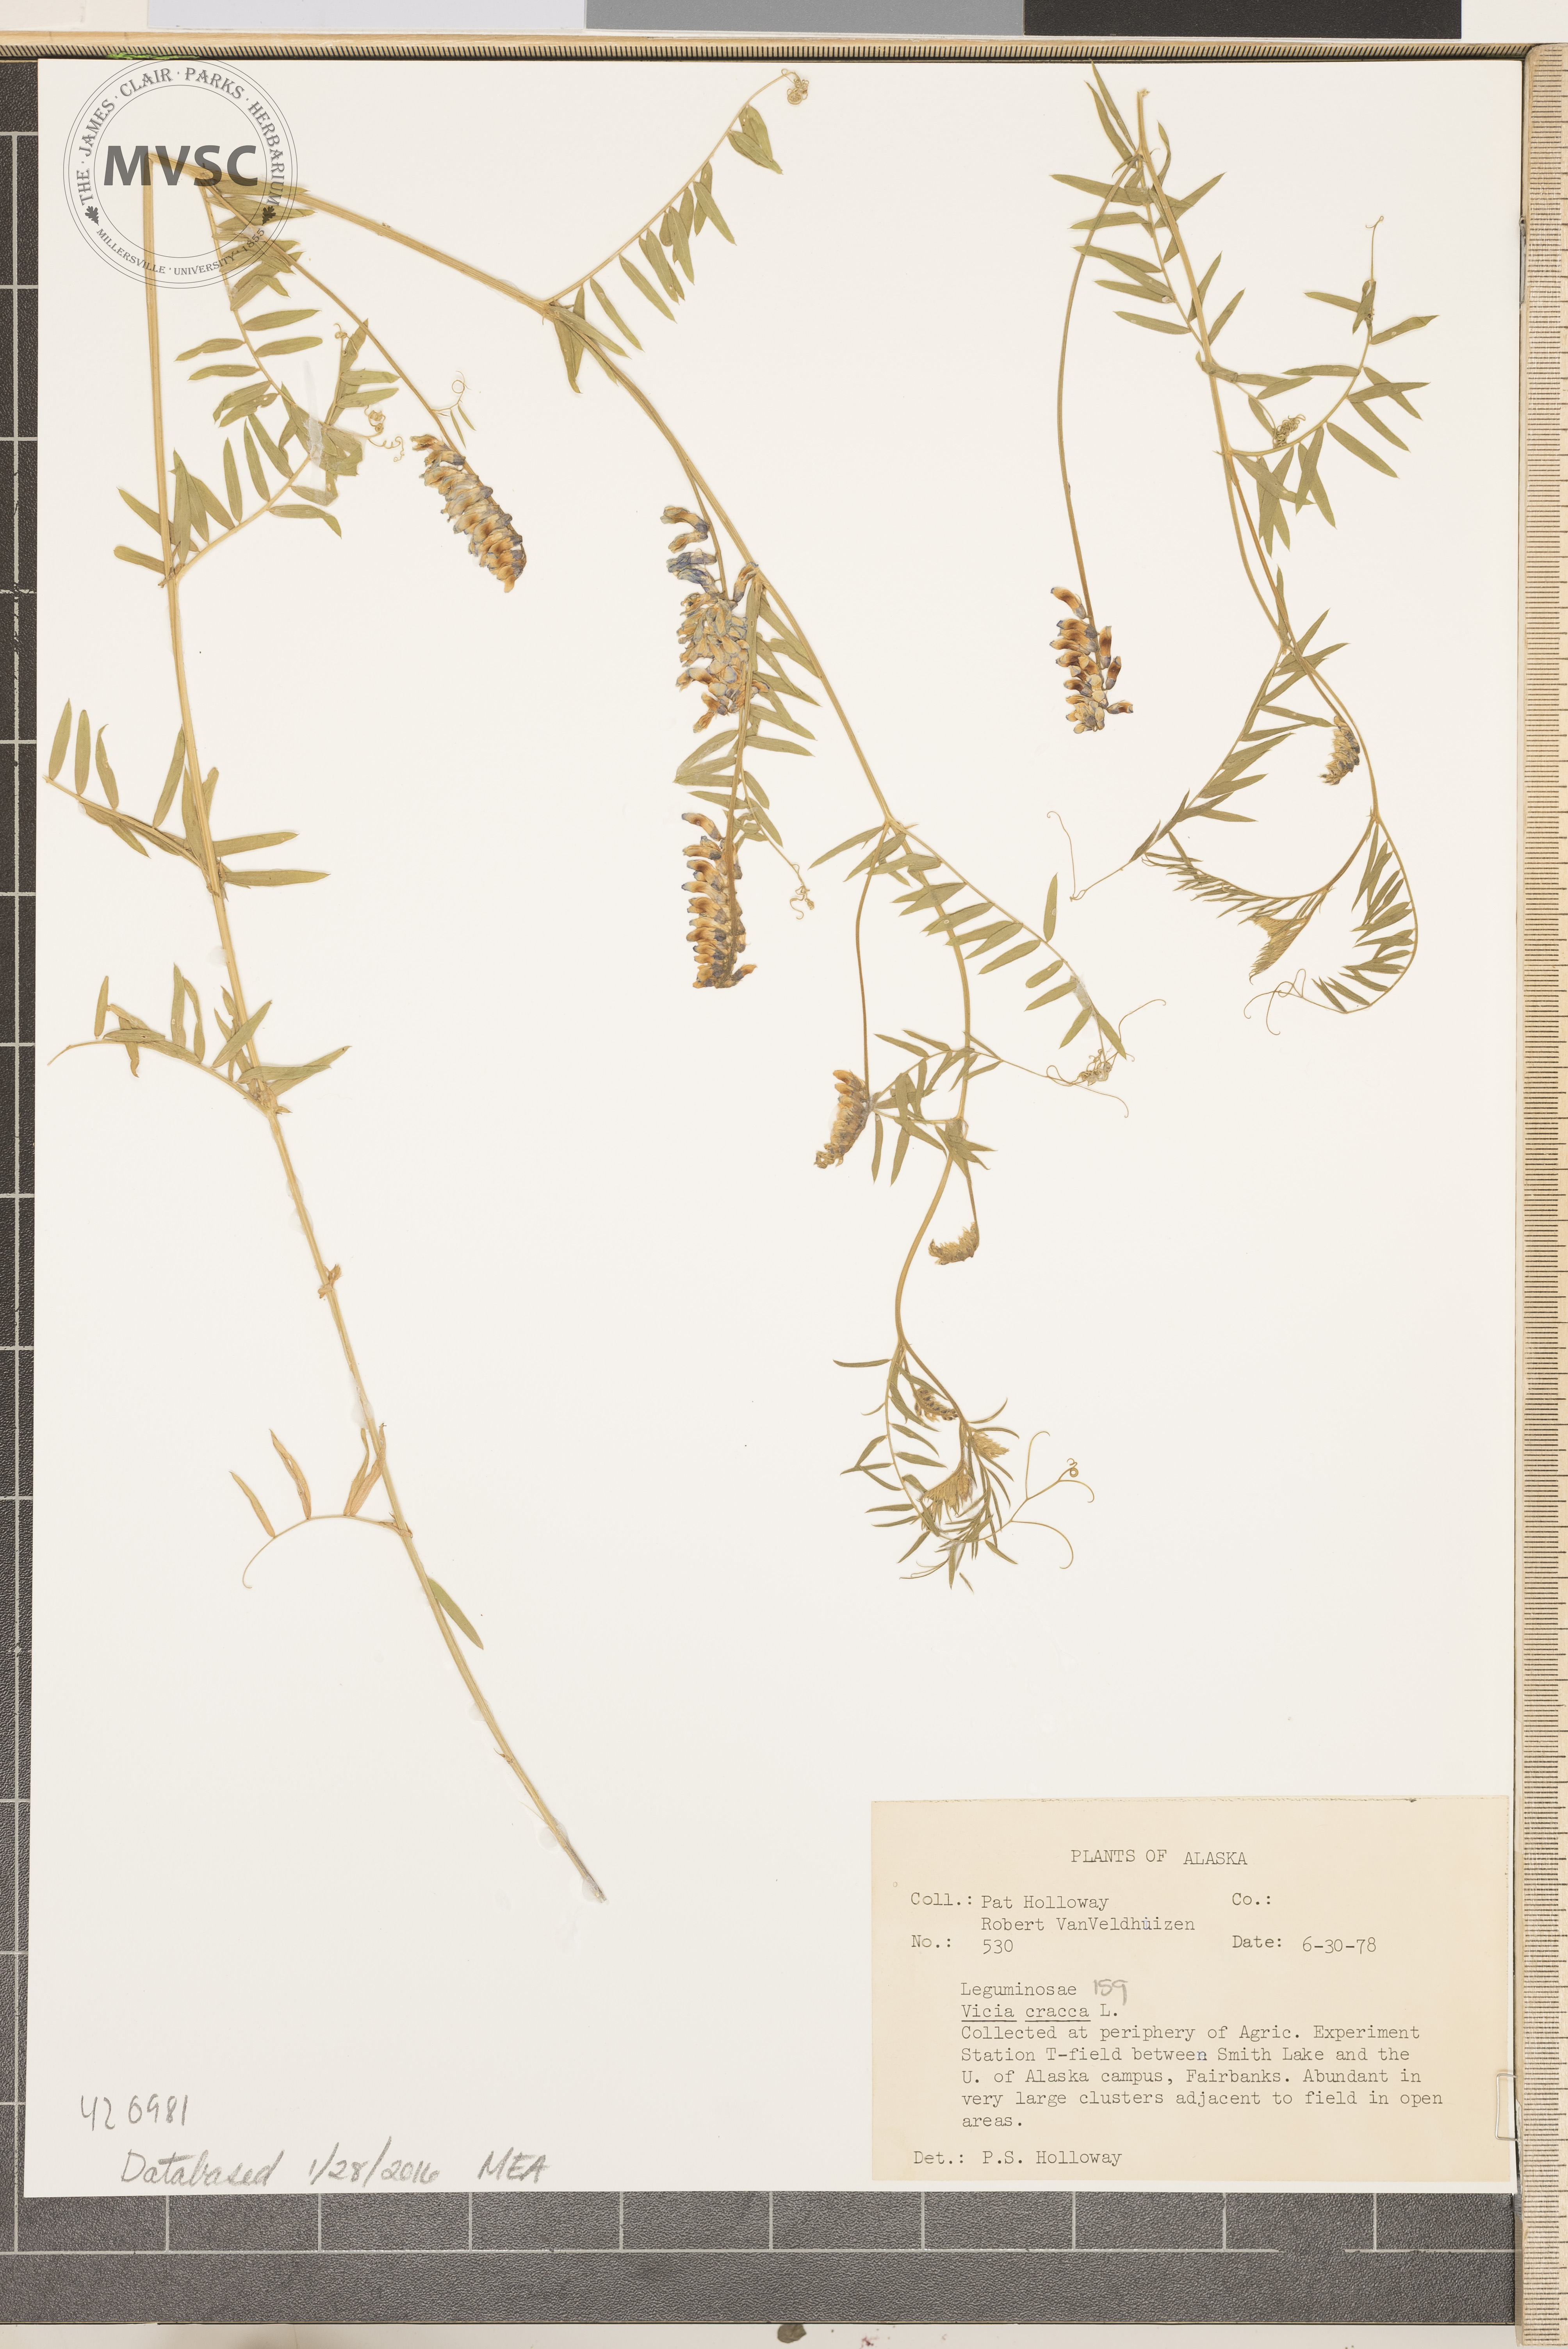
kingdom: Plantae
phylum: Tracheophyta
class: Magnoliopsida
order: Fabales
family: Fabaceae
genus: Vicia
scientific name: Vicia cracca
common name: Cow vetch
